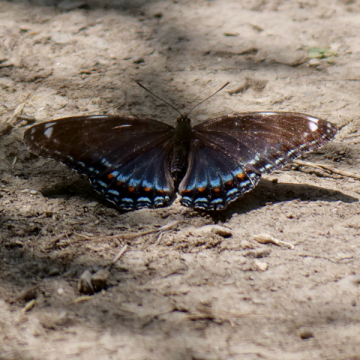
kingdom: Animalia
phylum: Arthropoda
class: Insecta
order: Lepidoptera
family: Nymphalidae
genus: Limenitis
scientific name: Limenitis arthemis
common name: Red-spotted Admiral
